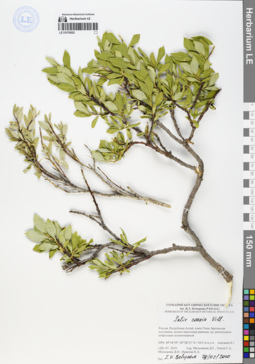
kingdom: Plantae
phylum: Tracheophyta
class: Magnoliopsida
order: Malpighiales
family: Salicaceae
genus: Salix
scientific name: Salix caesia
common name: Blue willow
